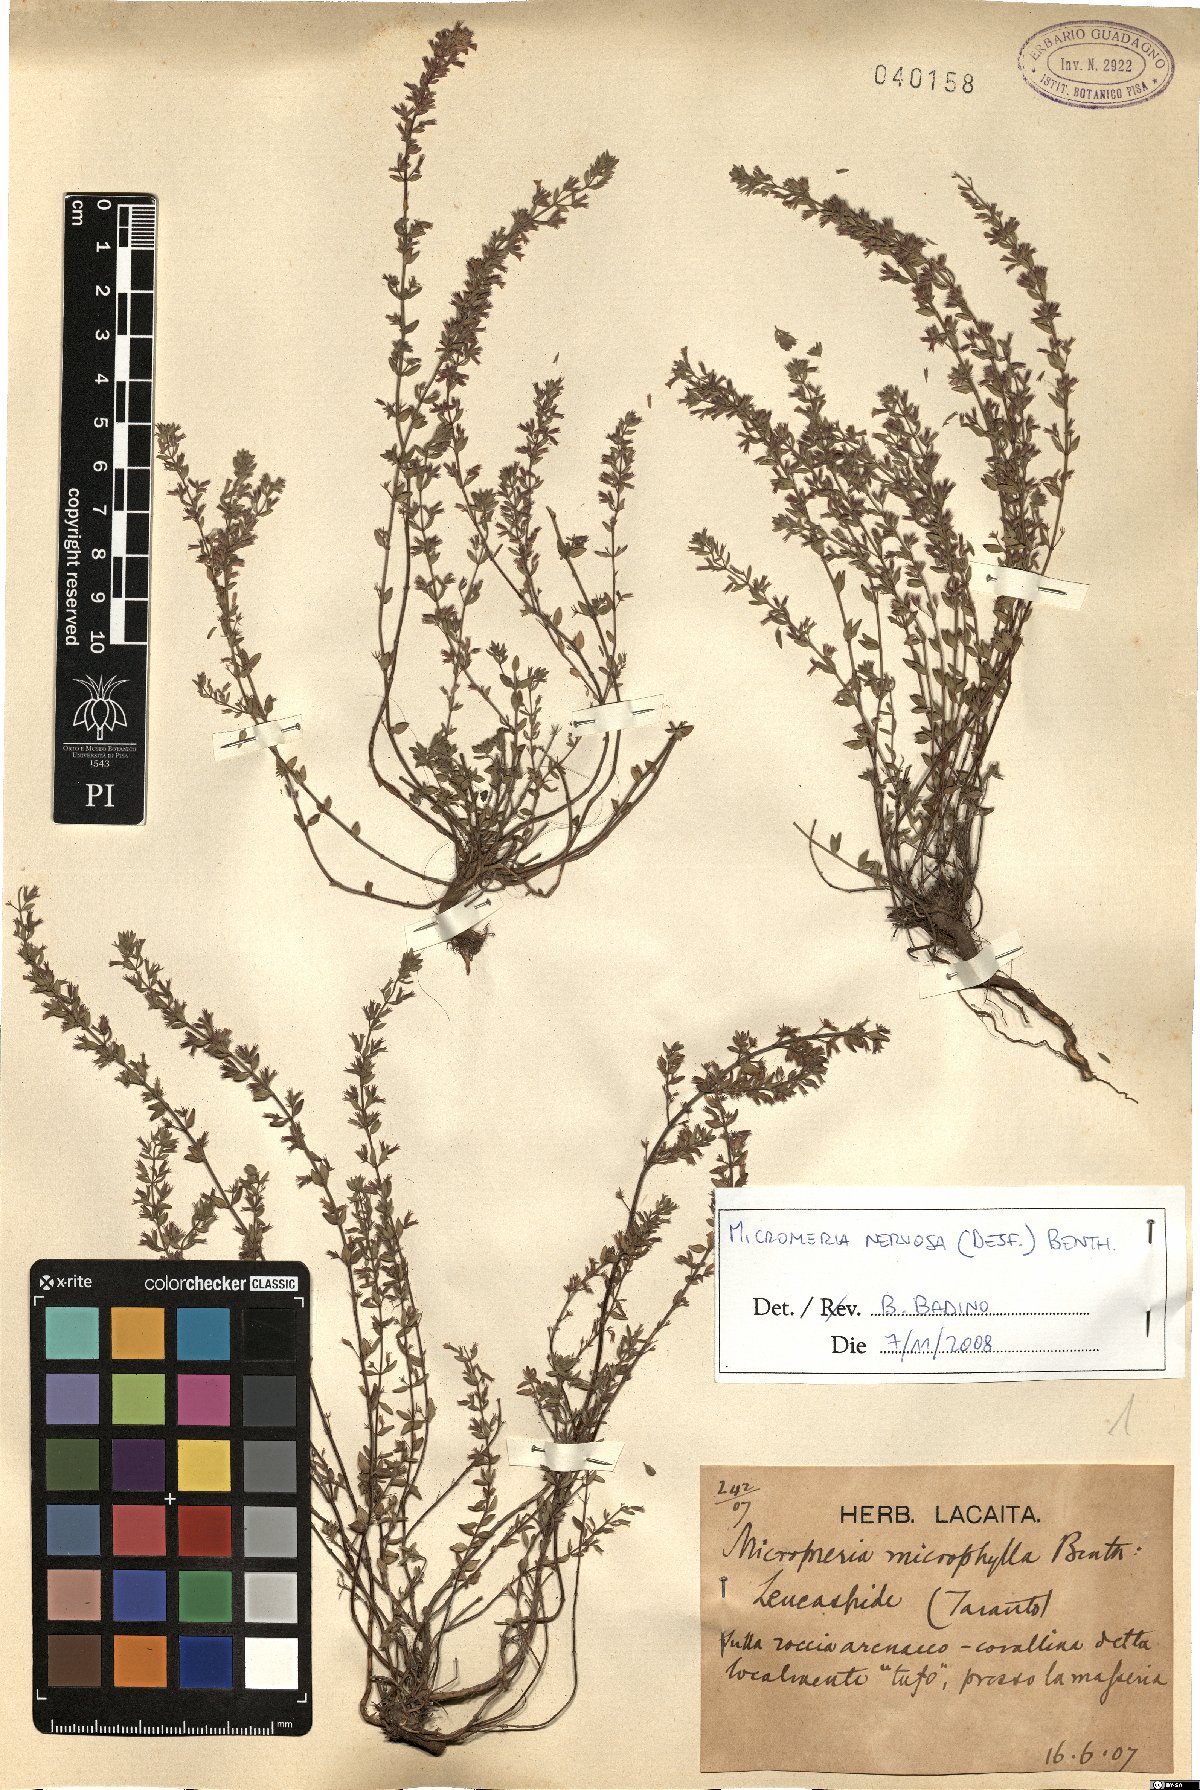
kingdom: Plantae
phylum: Tracheophyta
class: Magnoliopsida
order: Lamiales
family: Lamiaceae
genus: Micromeria
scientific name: Micromeria nervosa
